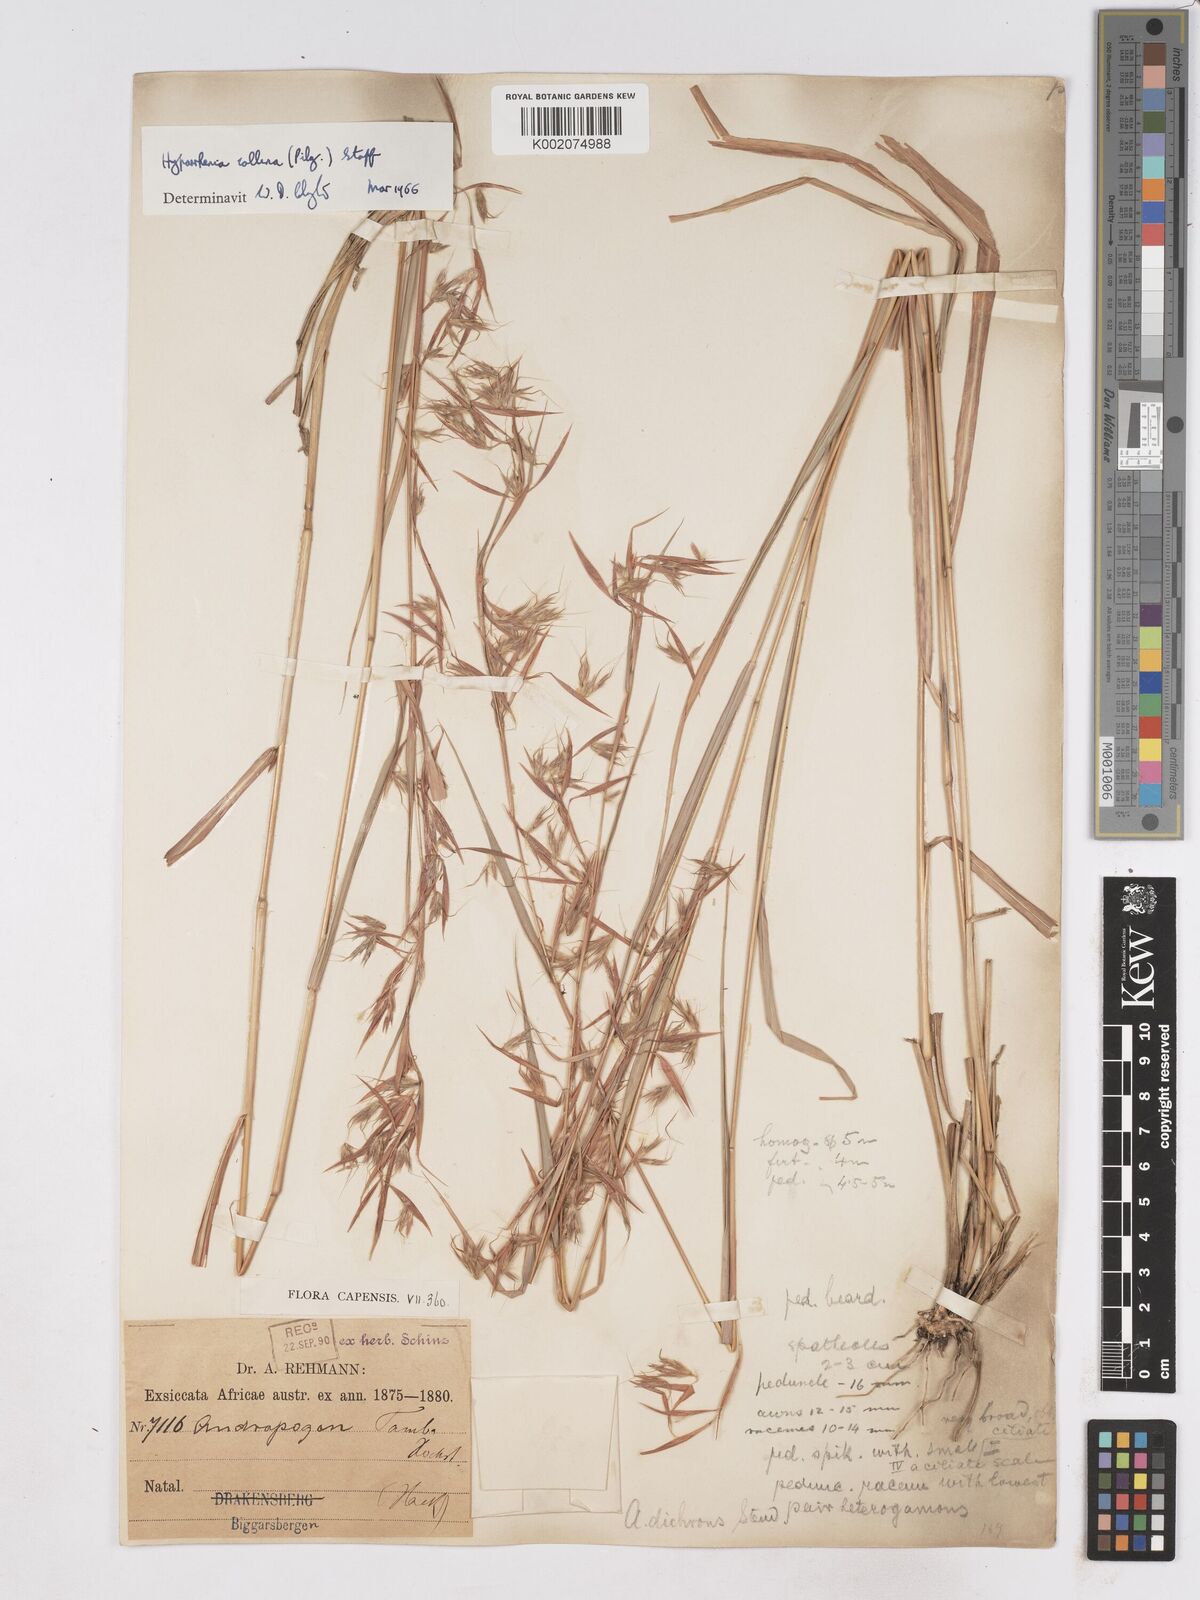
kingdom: Plantae
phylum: Tracheophyta
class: Liliopsida
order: Poales
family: Poaceae
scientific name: Poaceae
